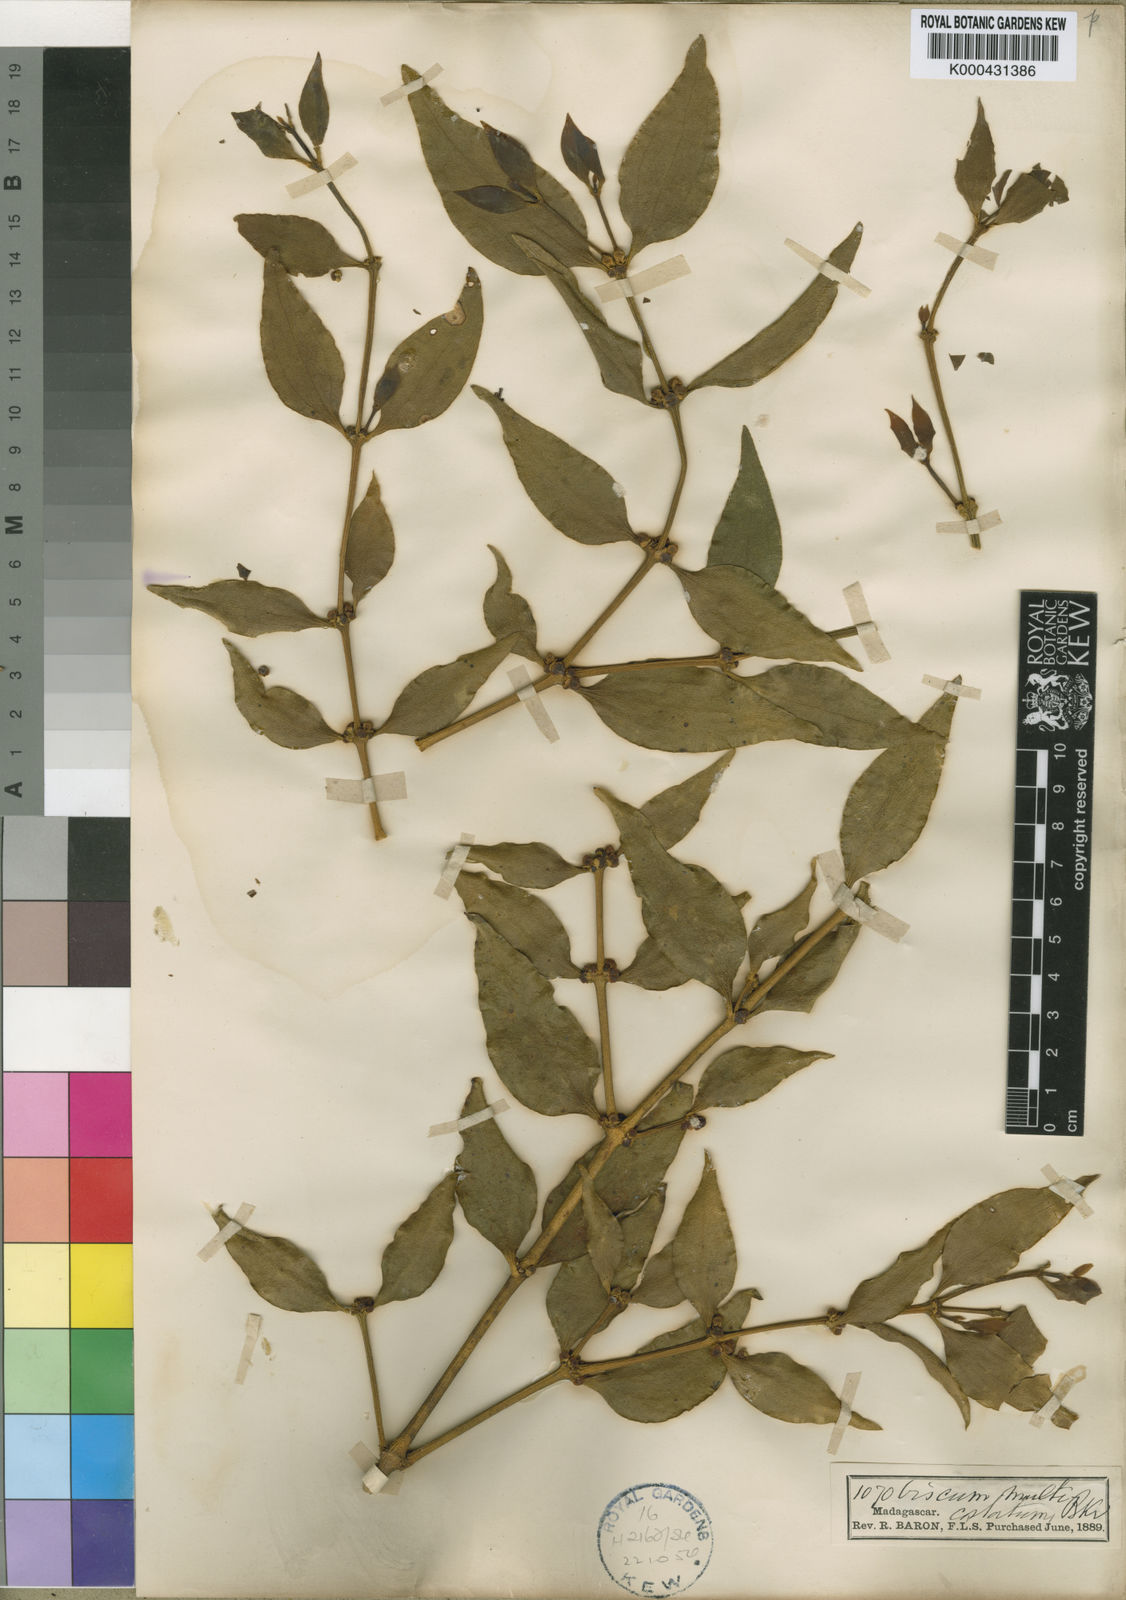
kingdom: Plantae
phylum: Tracheophyta
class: Magnoliopsida
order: Santalales
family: Viscaceae
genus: Viscum
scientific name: Viscum multicostatum
